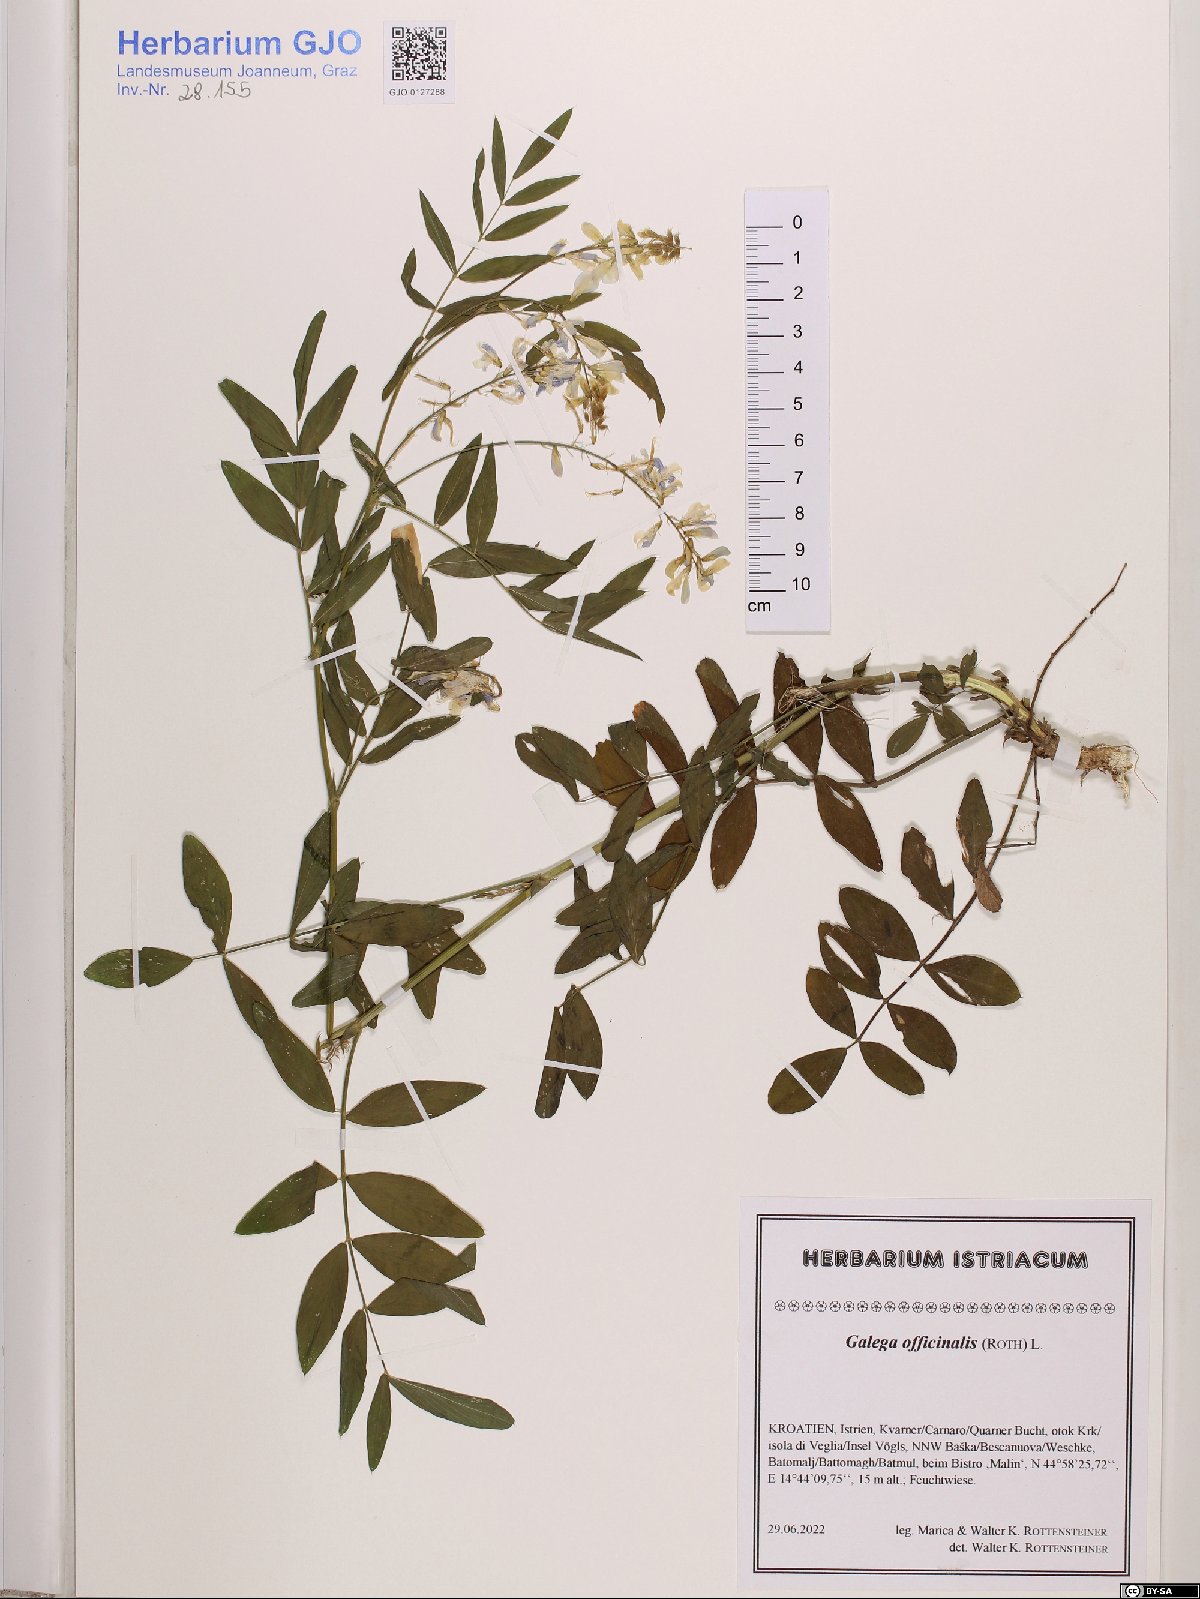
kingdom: Plantae
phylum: Tracheophyta
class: Magnoliopsida
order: Fabales
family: Fabaceae
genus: Galega
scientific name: Galega officinalis
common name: Goat's-rue
